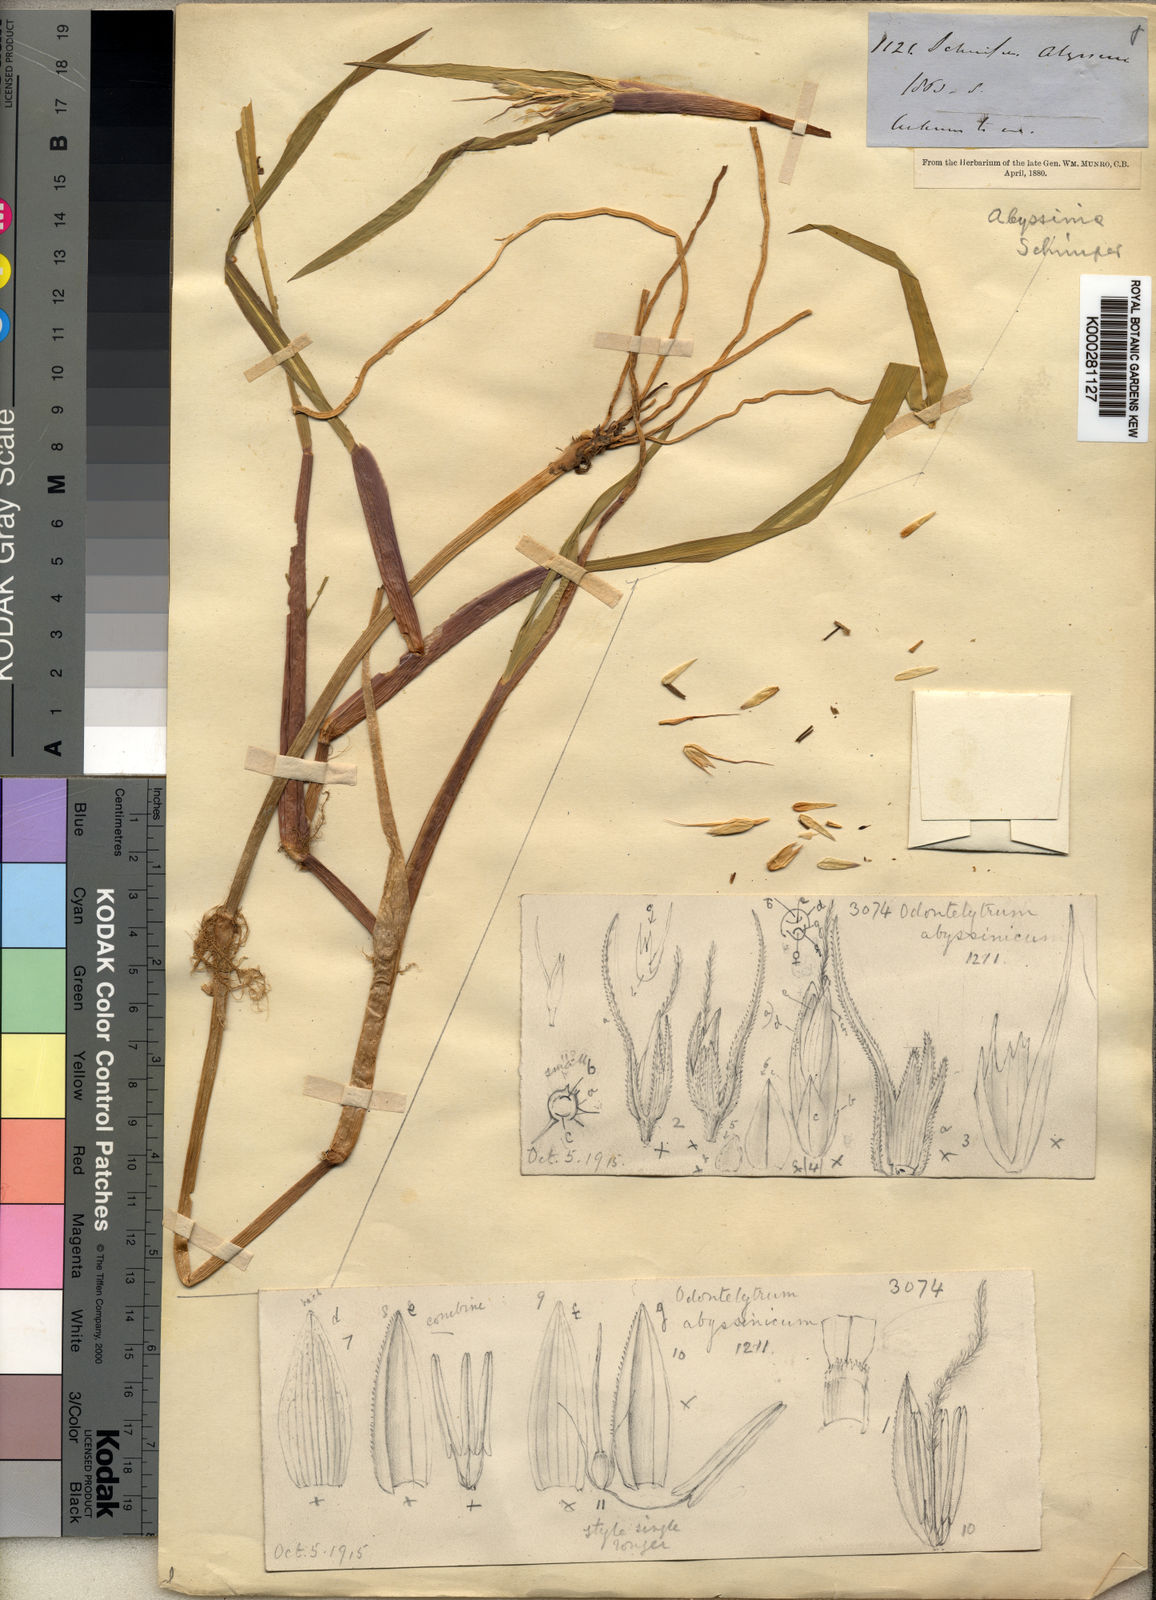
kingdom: Plantae
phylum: Tracheophyta
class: Liliopsida
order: Poales
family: Poaceae
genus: Cenchrus
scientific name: Cenchrus abyssinicus
